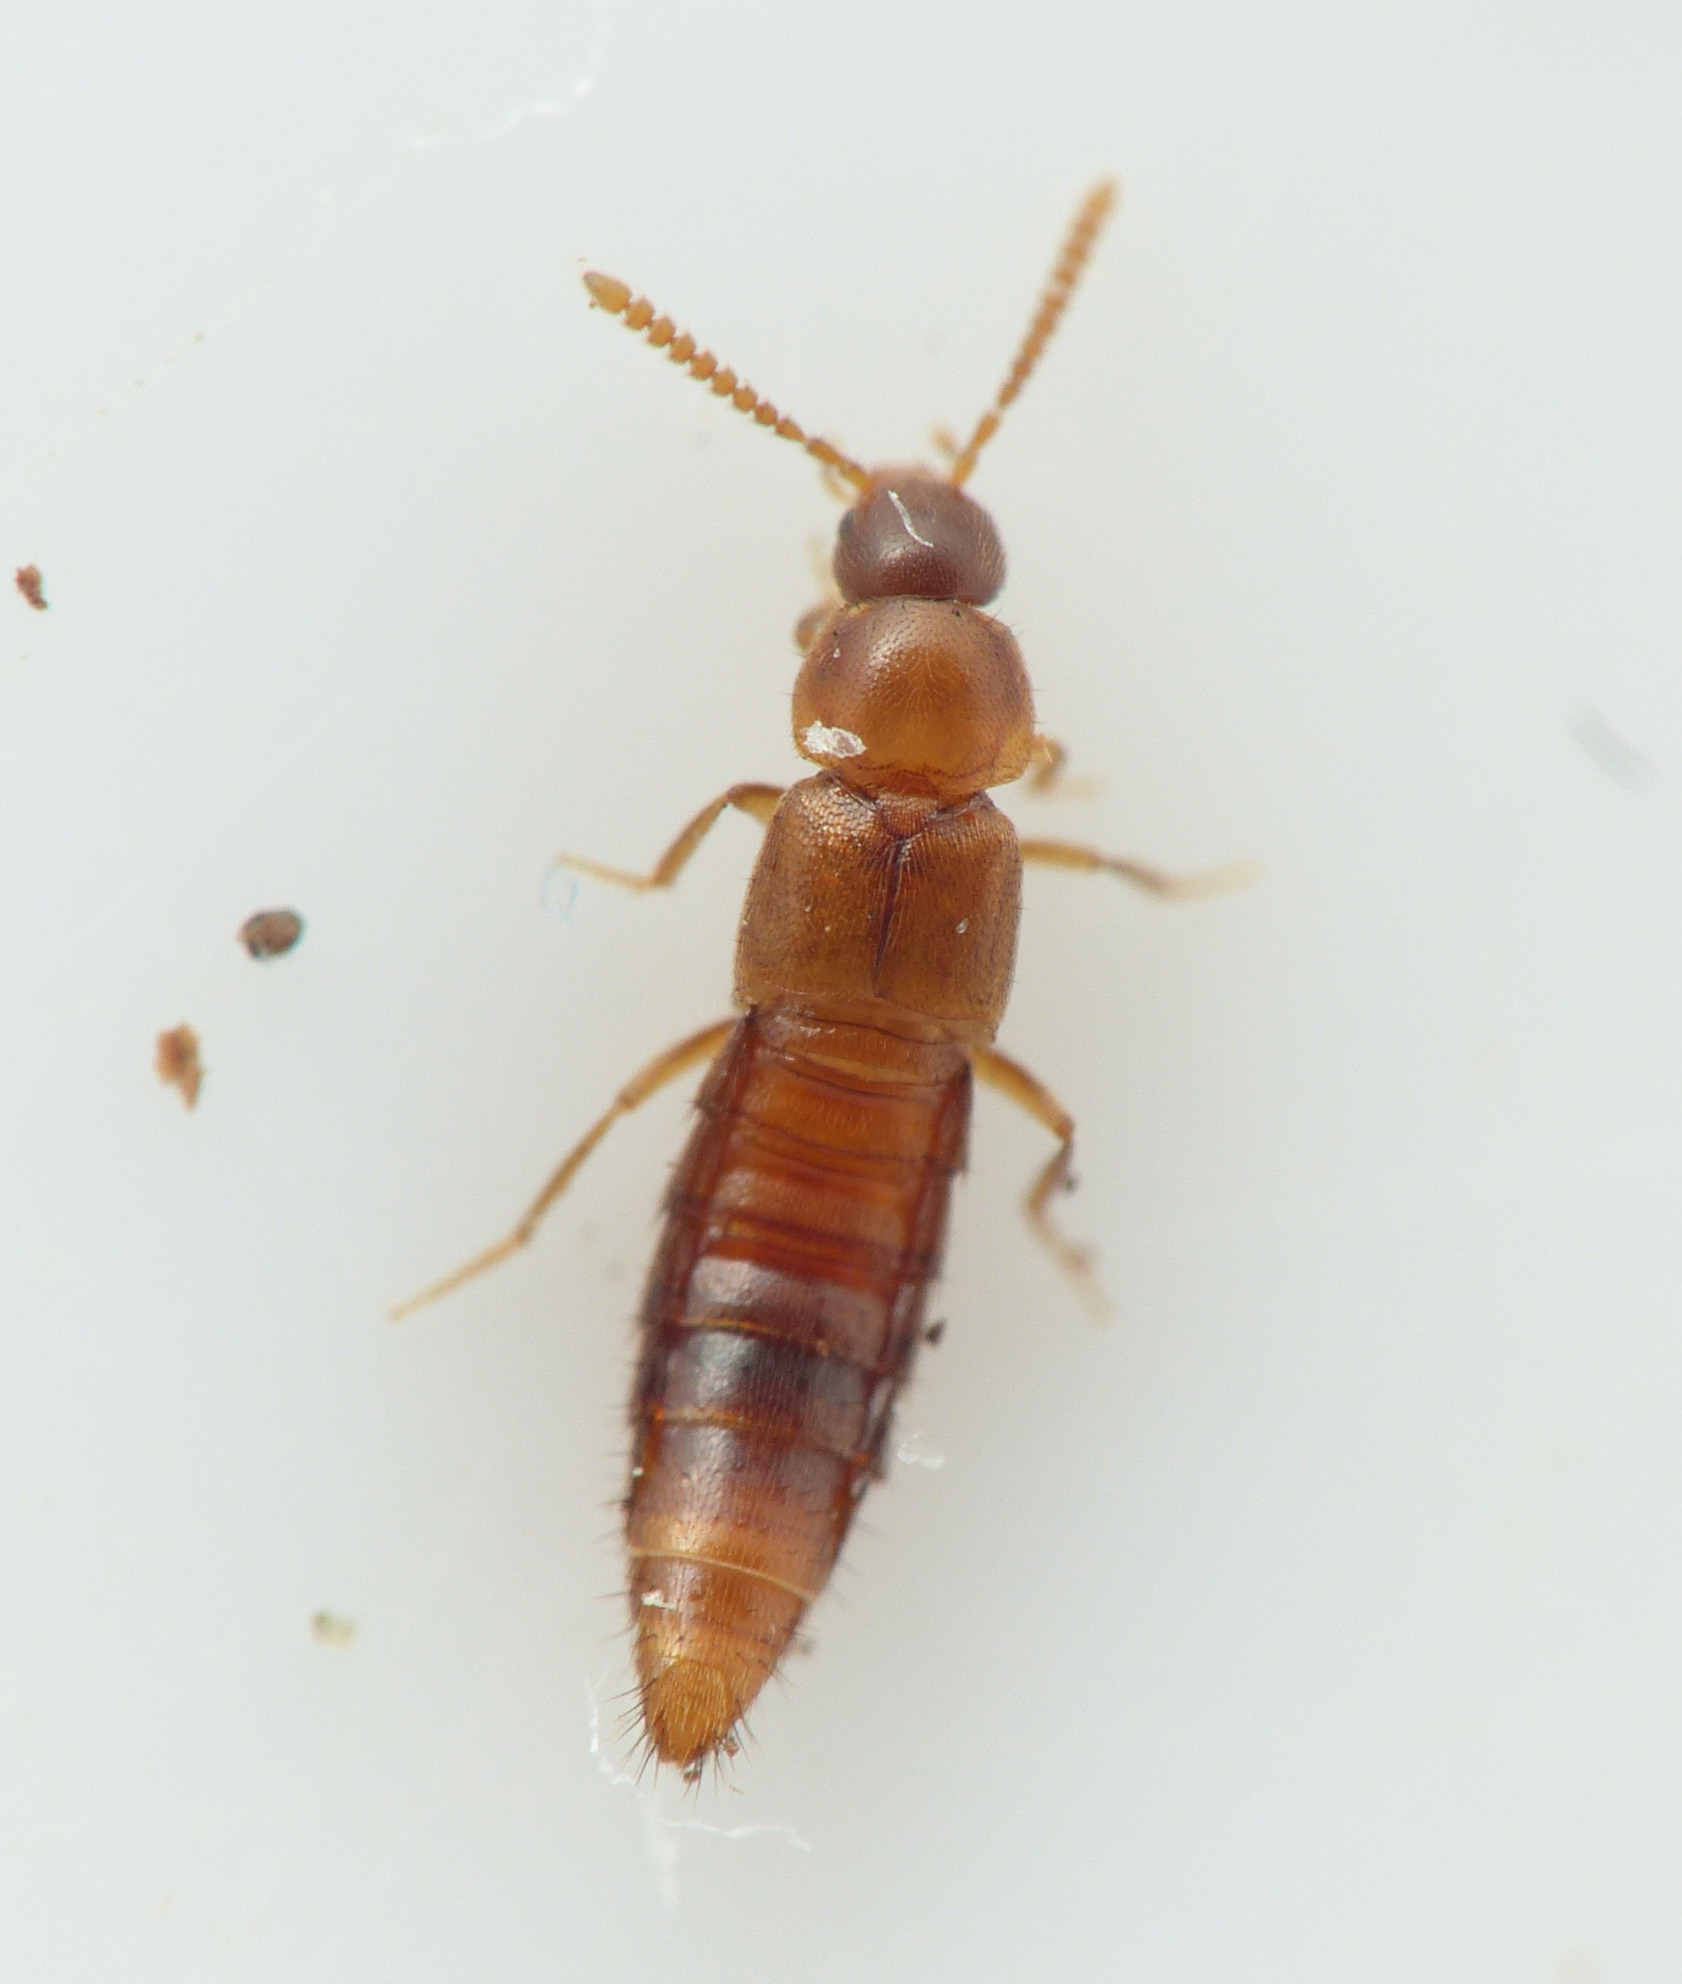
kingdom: Animalia
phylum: Arthropoda
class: Insecta
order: Coleoptera
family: Staphylinidae
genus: Oxypoda
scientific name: Oxypoda recondita
